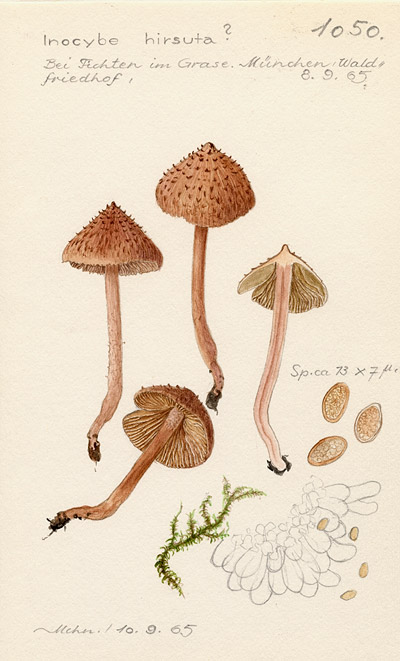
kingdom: Fungi
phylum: Basidiomycota
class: Agaricomycetes
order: Agaricales
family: Inocybaceae
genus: Inosperma
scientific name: Inosperma hirsutum
